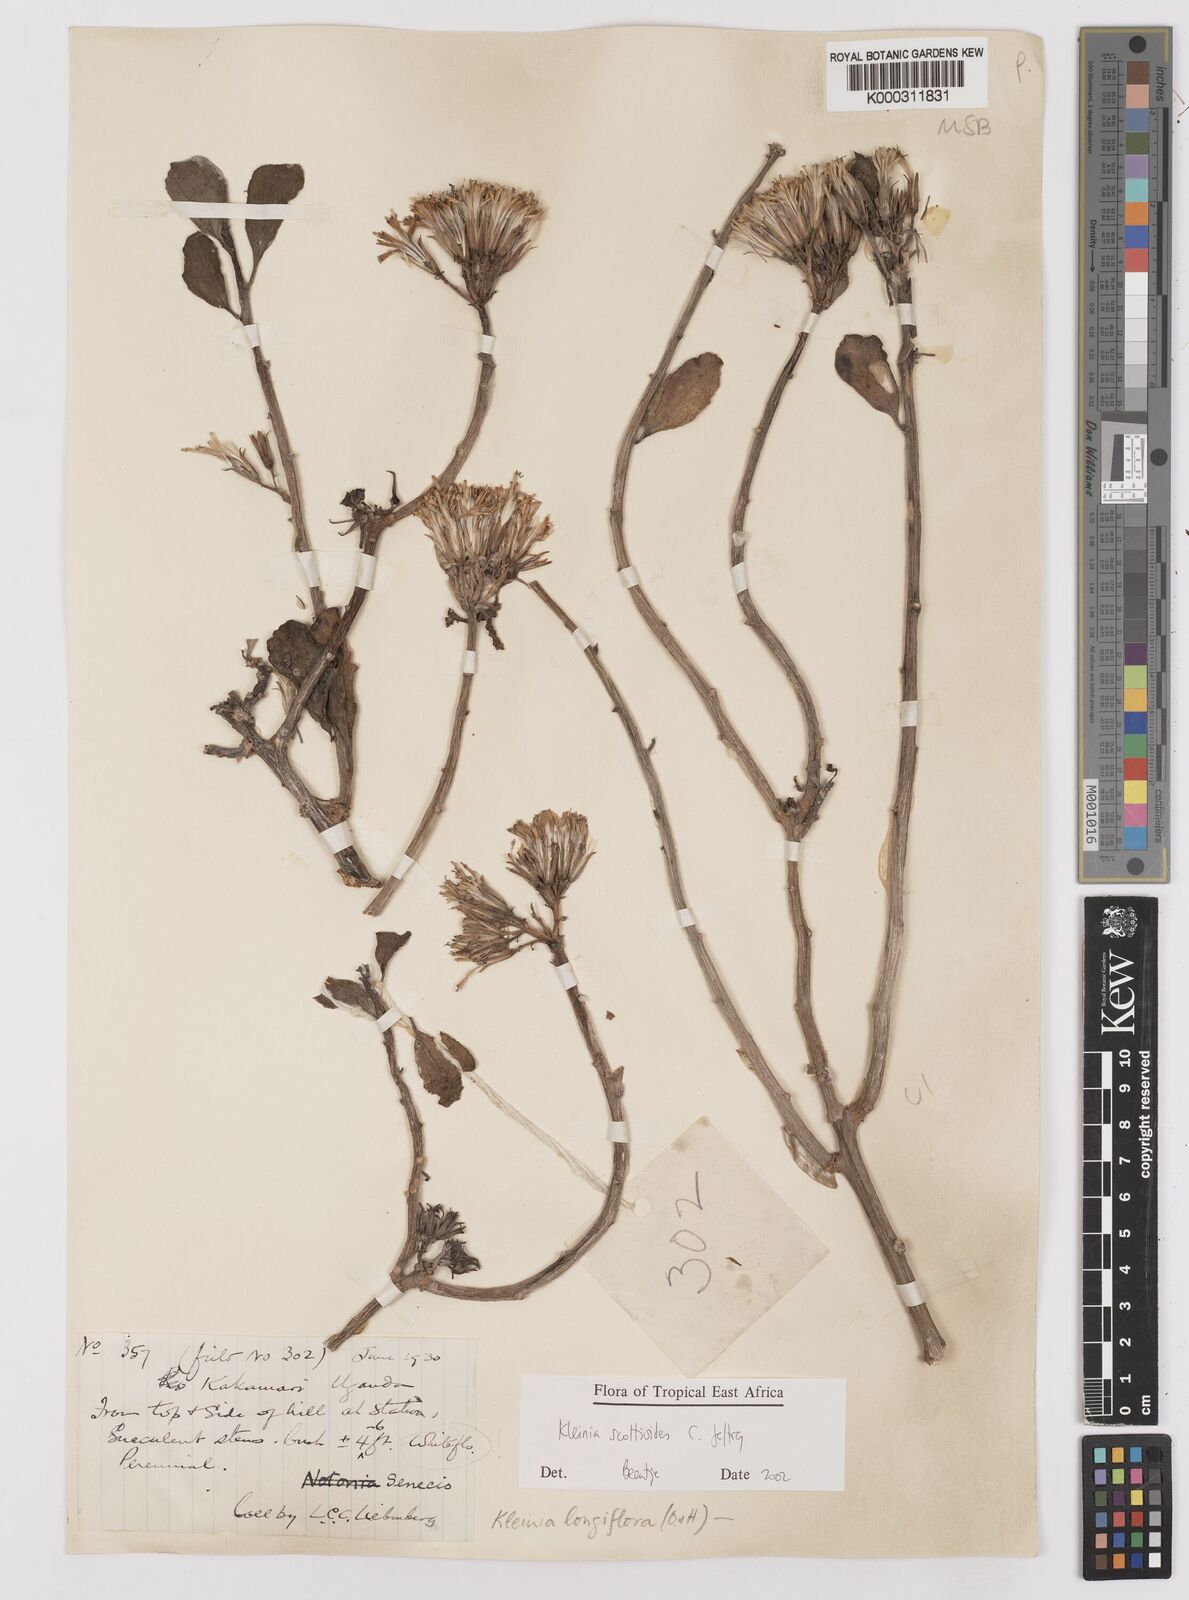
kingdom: Plantae
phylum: Tracheophyta
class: Magnoliopsida
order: Asterales
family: Asteraceae
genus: Curio
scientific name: Curio avasimontanus
